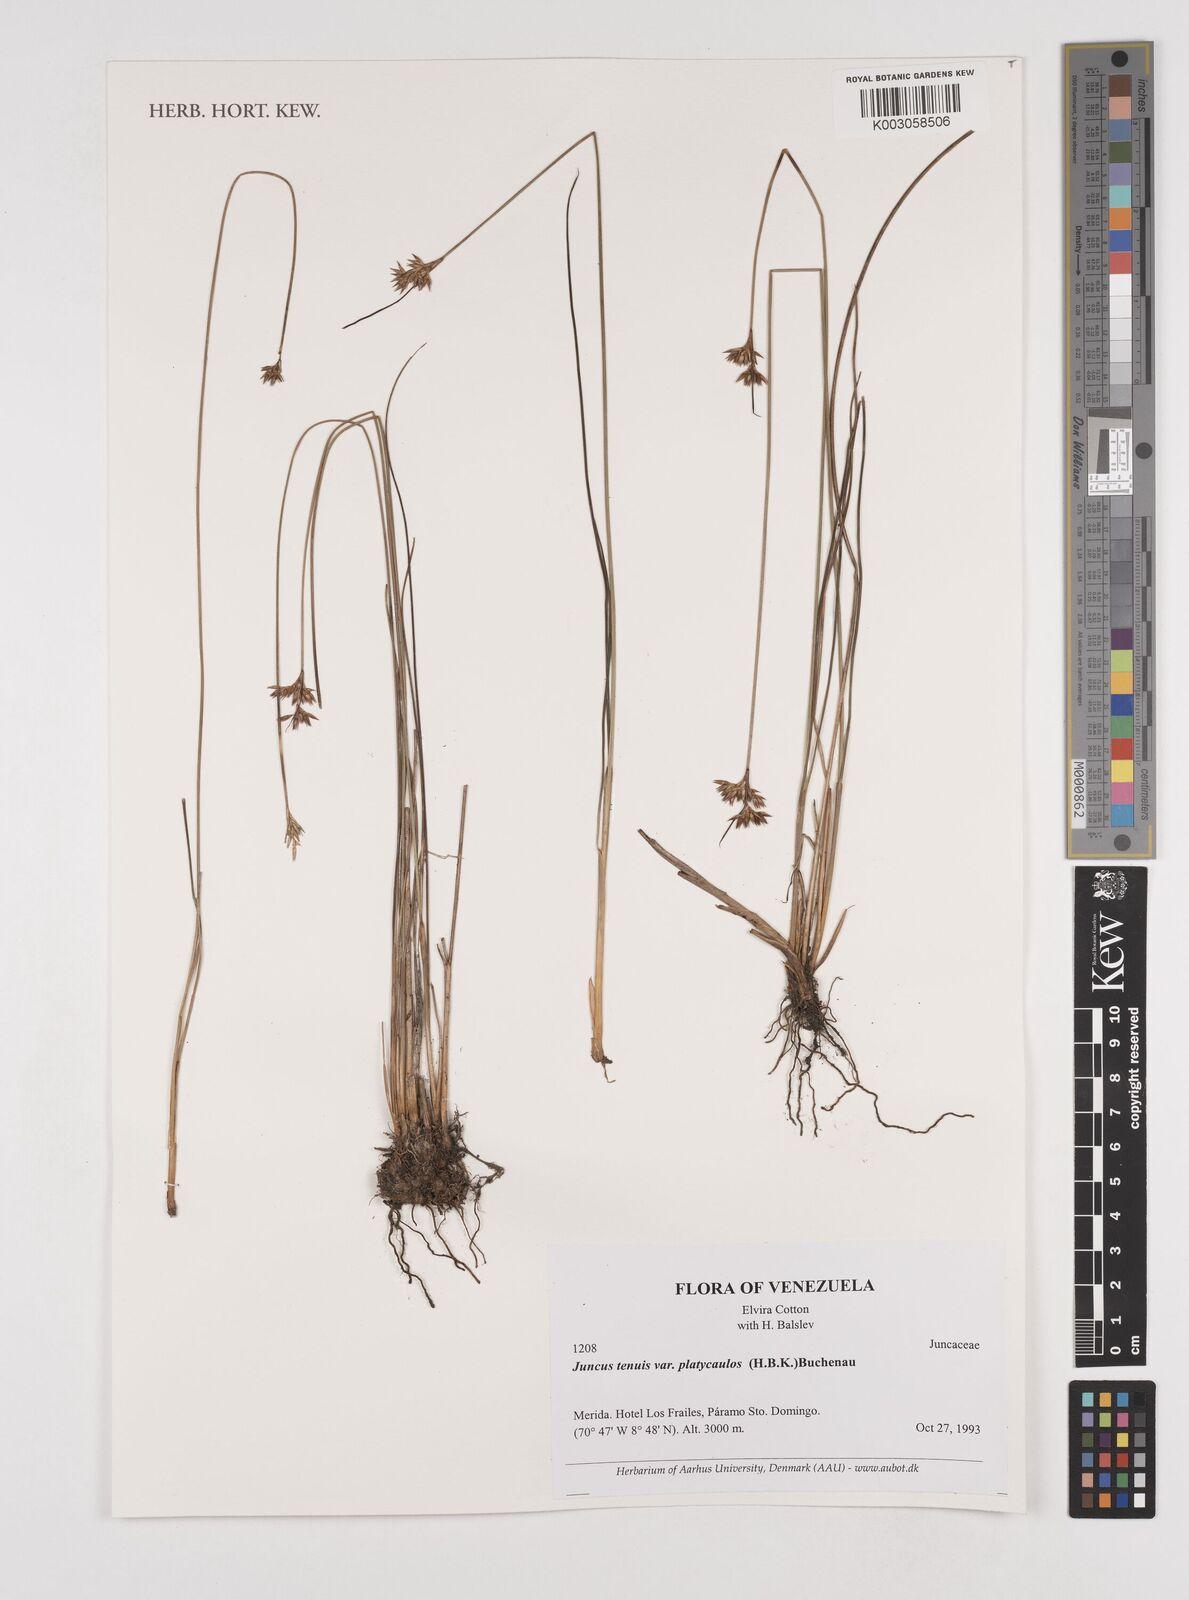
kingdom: Plantae
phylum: Tracheophyta
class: Liliopsida
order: Poales
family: Juncaceae
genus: Juncus
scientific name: Juncus dudleyi
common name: Dudley's rush
